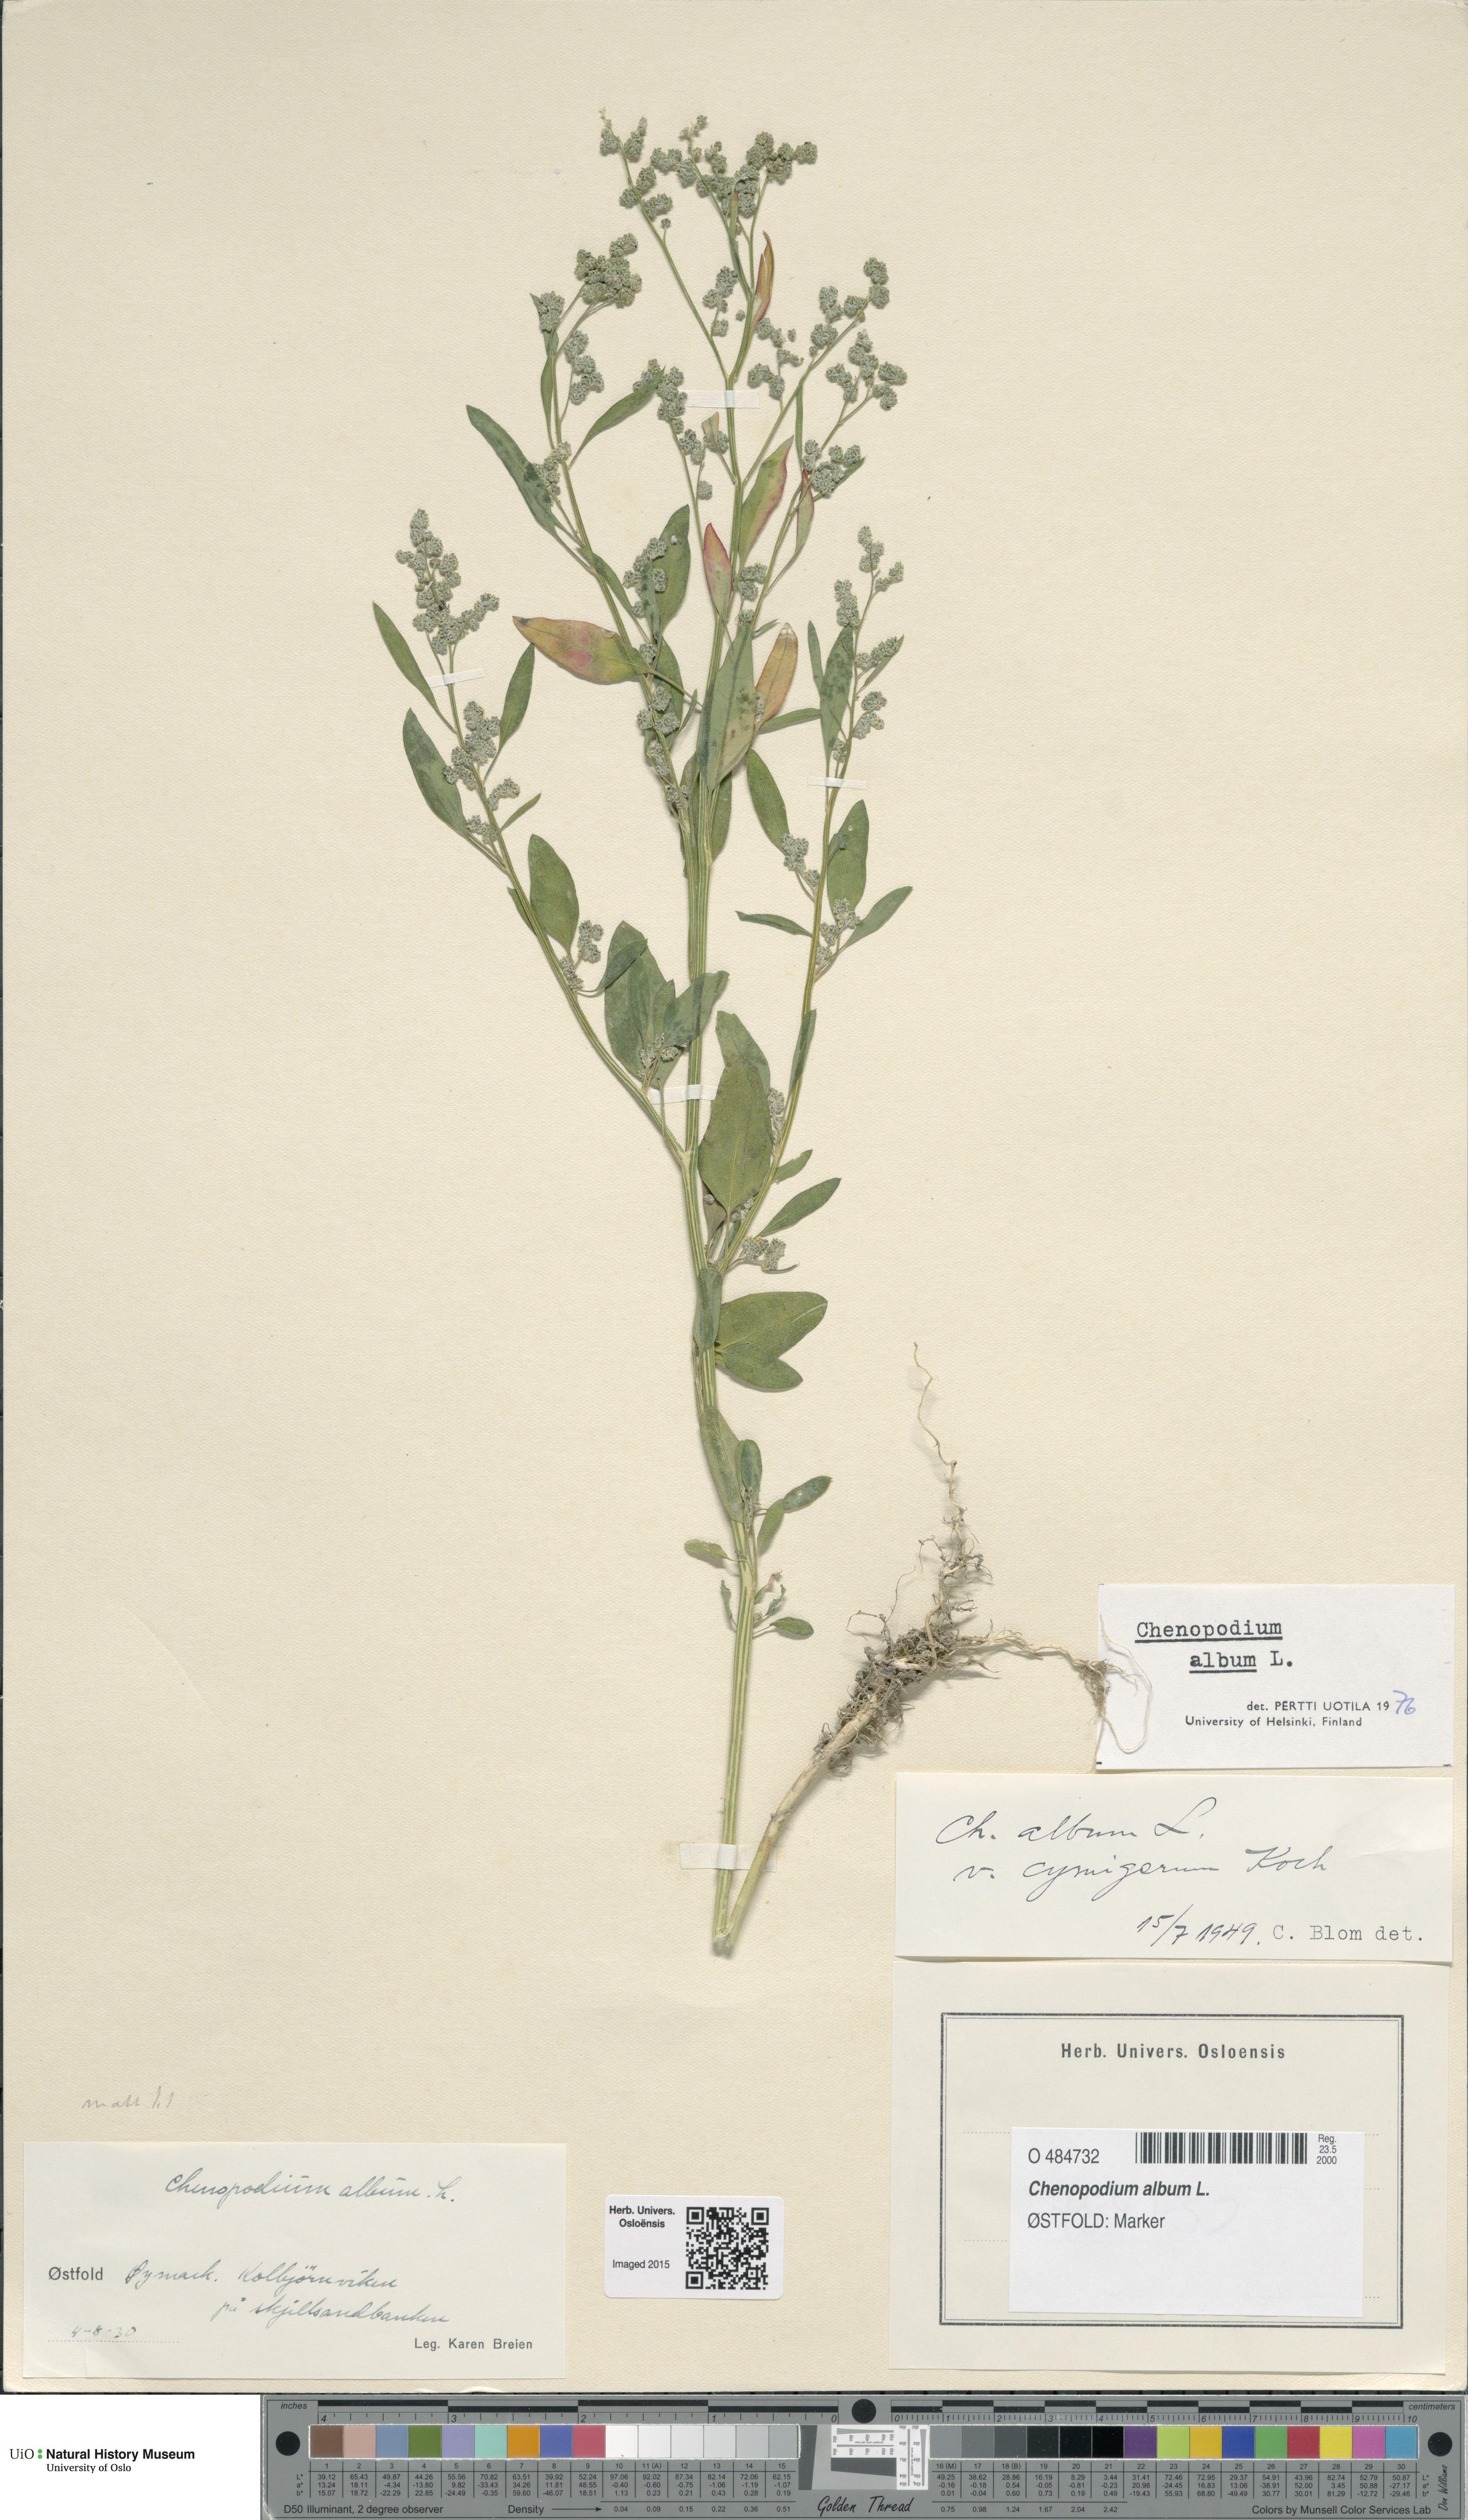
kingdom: Plantae
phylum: Tracheophyta
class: Magnoliopsida
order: Caryophyllales
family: Amaranthaceae
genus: Chenopodium
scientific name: Chenopodium album
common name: Fat-hen
